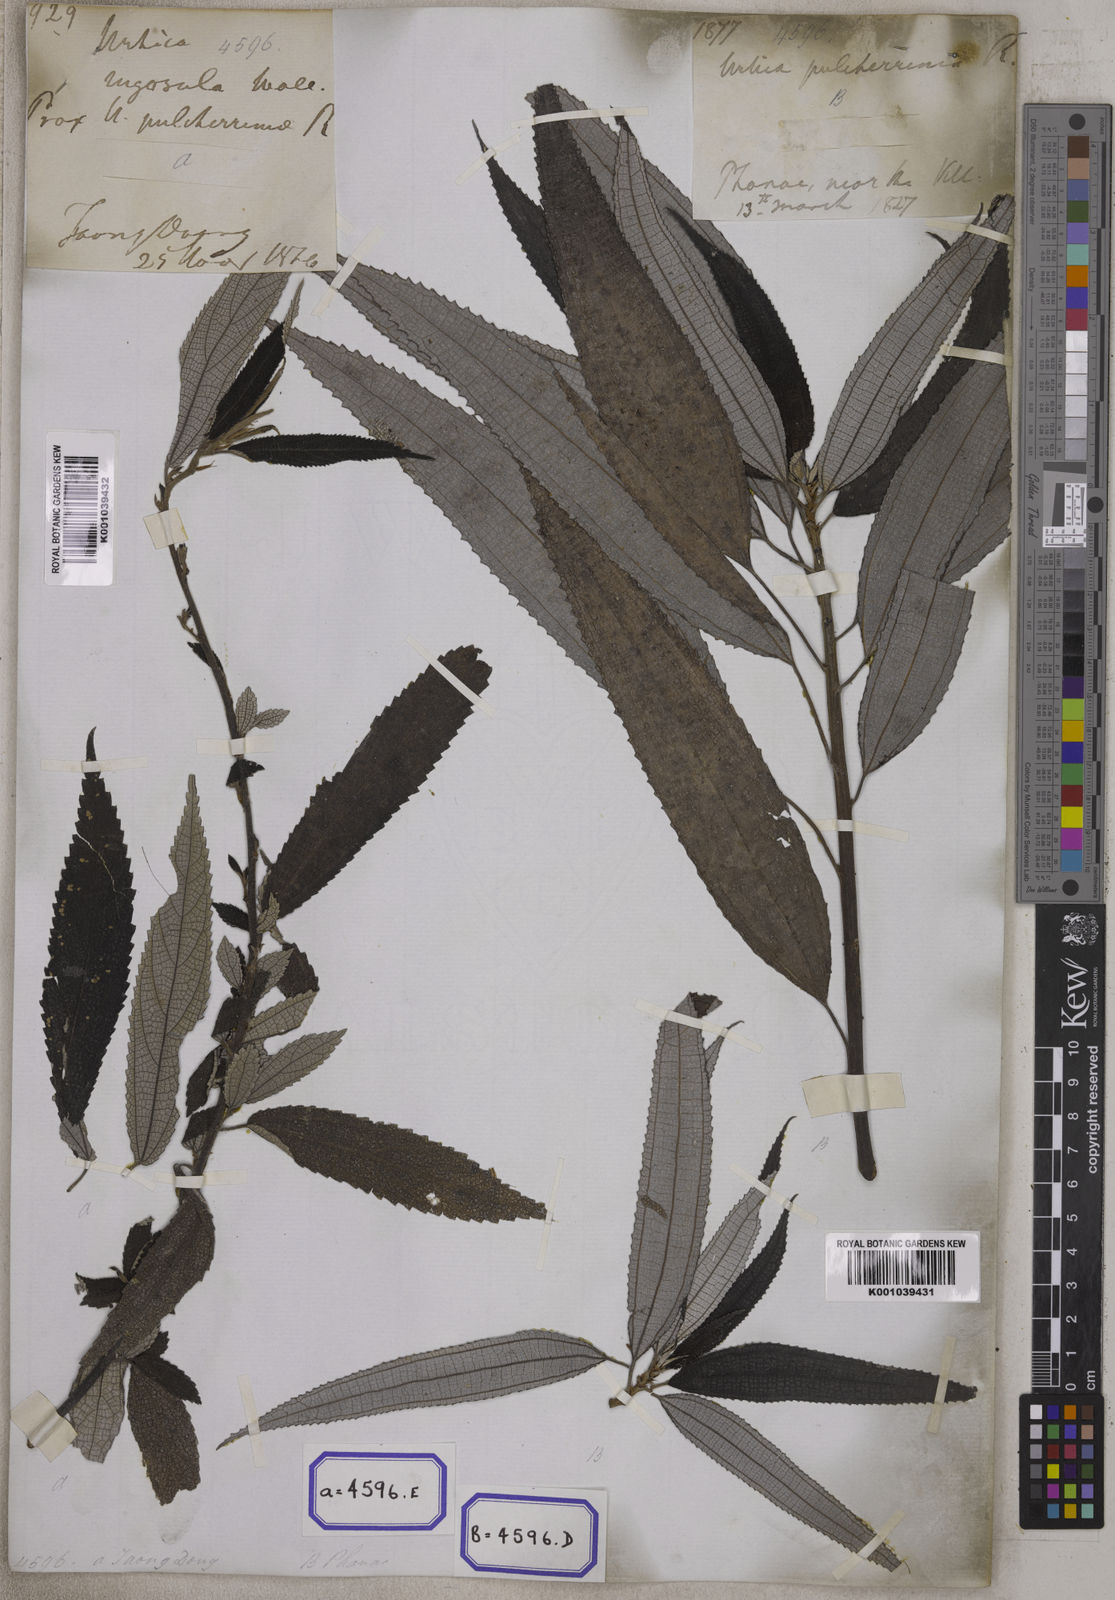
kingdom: Plantae
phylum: Tracheophyta
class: Magnoliopsida
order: Rosales
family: Urticaceae
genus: Boehmeria
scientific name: Boehmeria virgata
